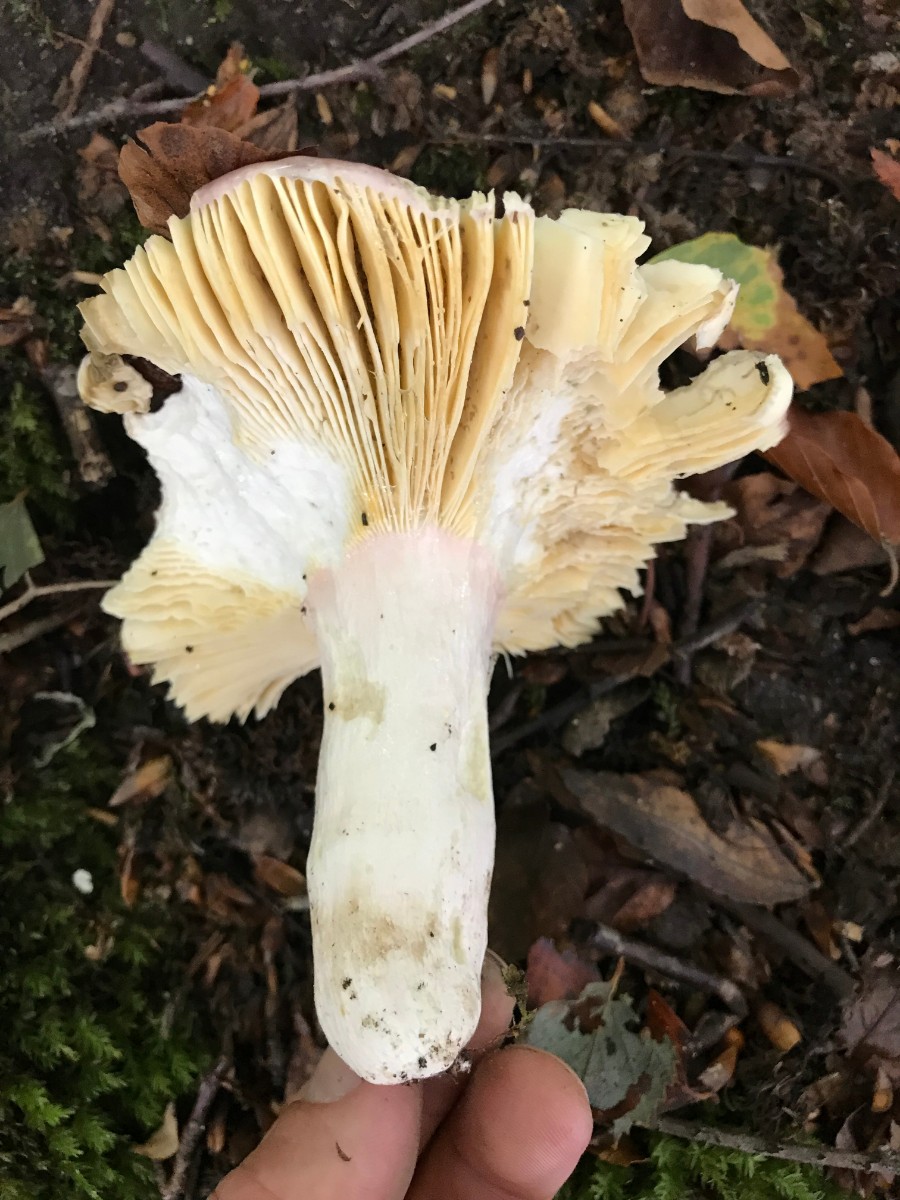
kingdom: Fungi
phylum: Basidiomycota
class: Agaricomycetes
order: Russulales
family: Russulaceae
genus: Russula
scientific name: Russula olivacea
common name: stor skørhat
